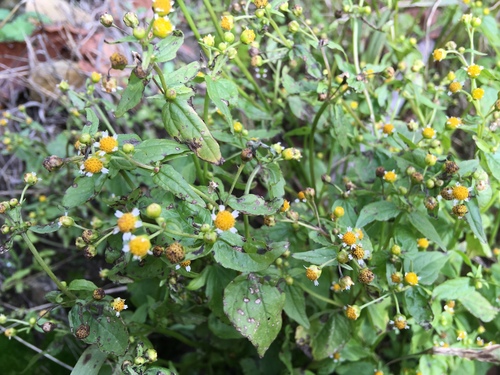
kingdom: Plantae
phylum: Tracheophyta
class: Magnoliopsida
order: Asterales
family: Asteraceae
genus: Galinsoga
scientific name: Galinsoga parviflora
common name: Gallant soldier
